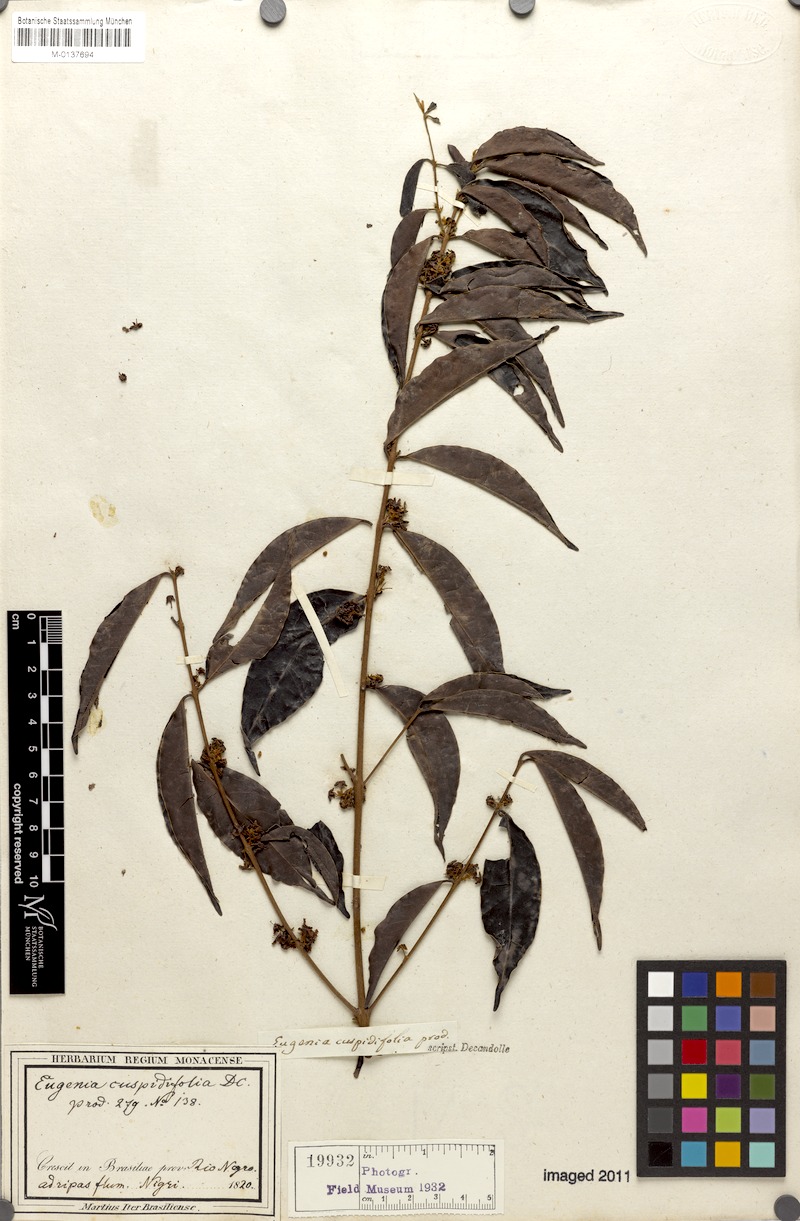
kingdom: Plantae
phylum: Tracheophyta
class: Magnoliopsida
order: Myrtales
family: Myrtaceae
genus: Eugenia
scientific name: Eugenia cuspidifolia
